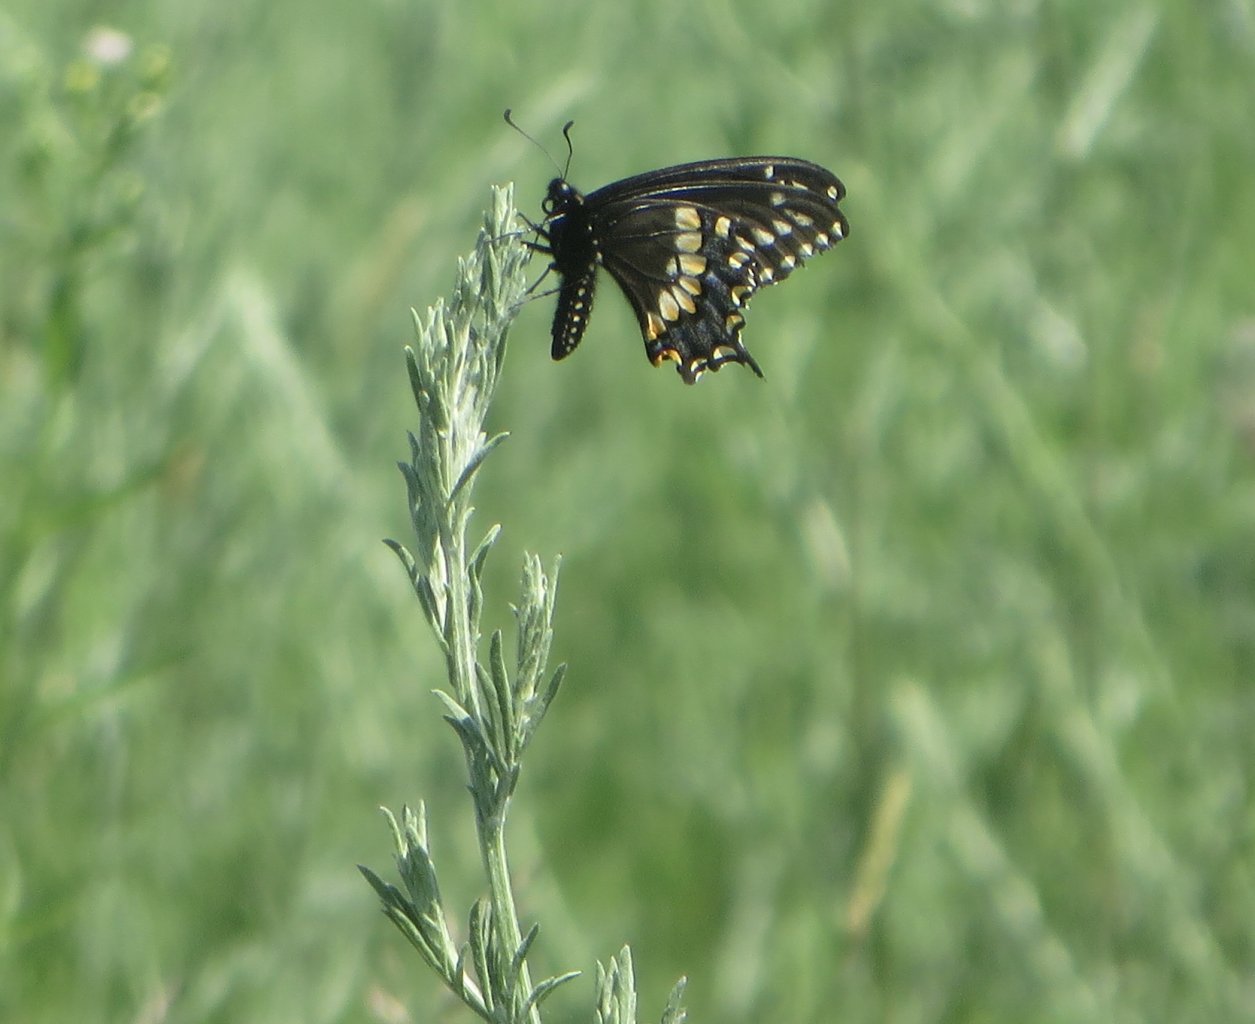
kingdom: Animalia
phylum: Arthropoda
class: Insecta
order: Lepidoptera
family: Papilionidae
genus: Papilio
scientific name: Papilio polyxenes
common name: Black Swallowtail
